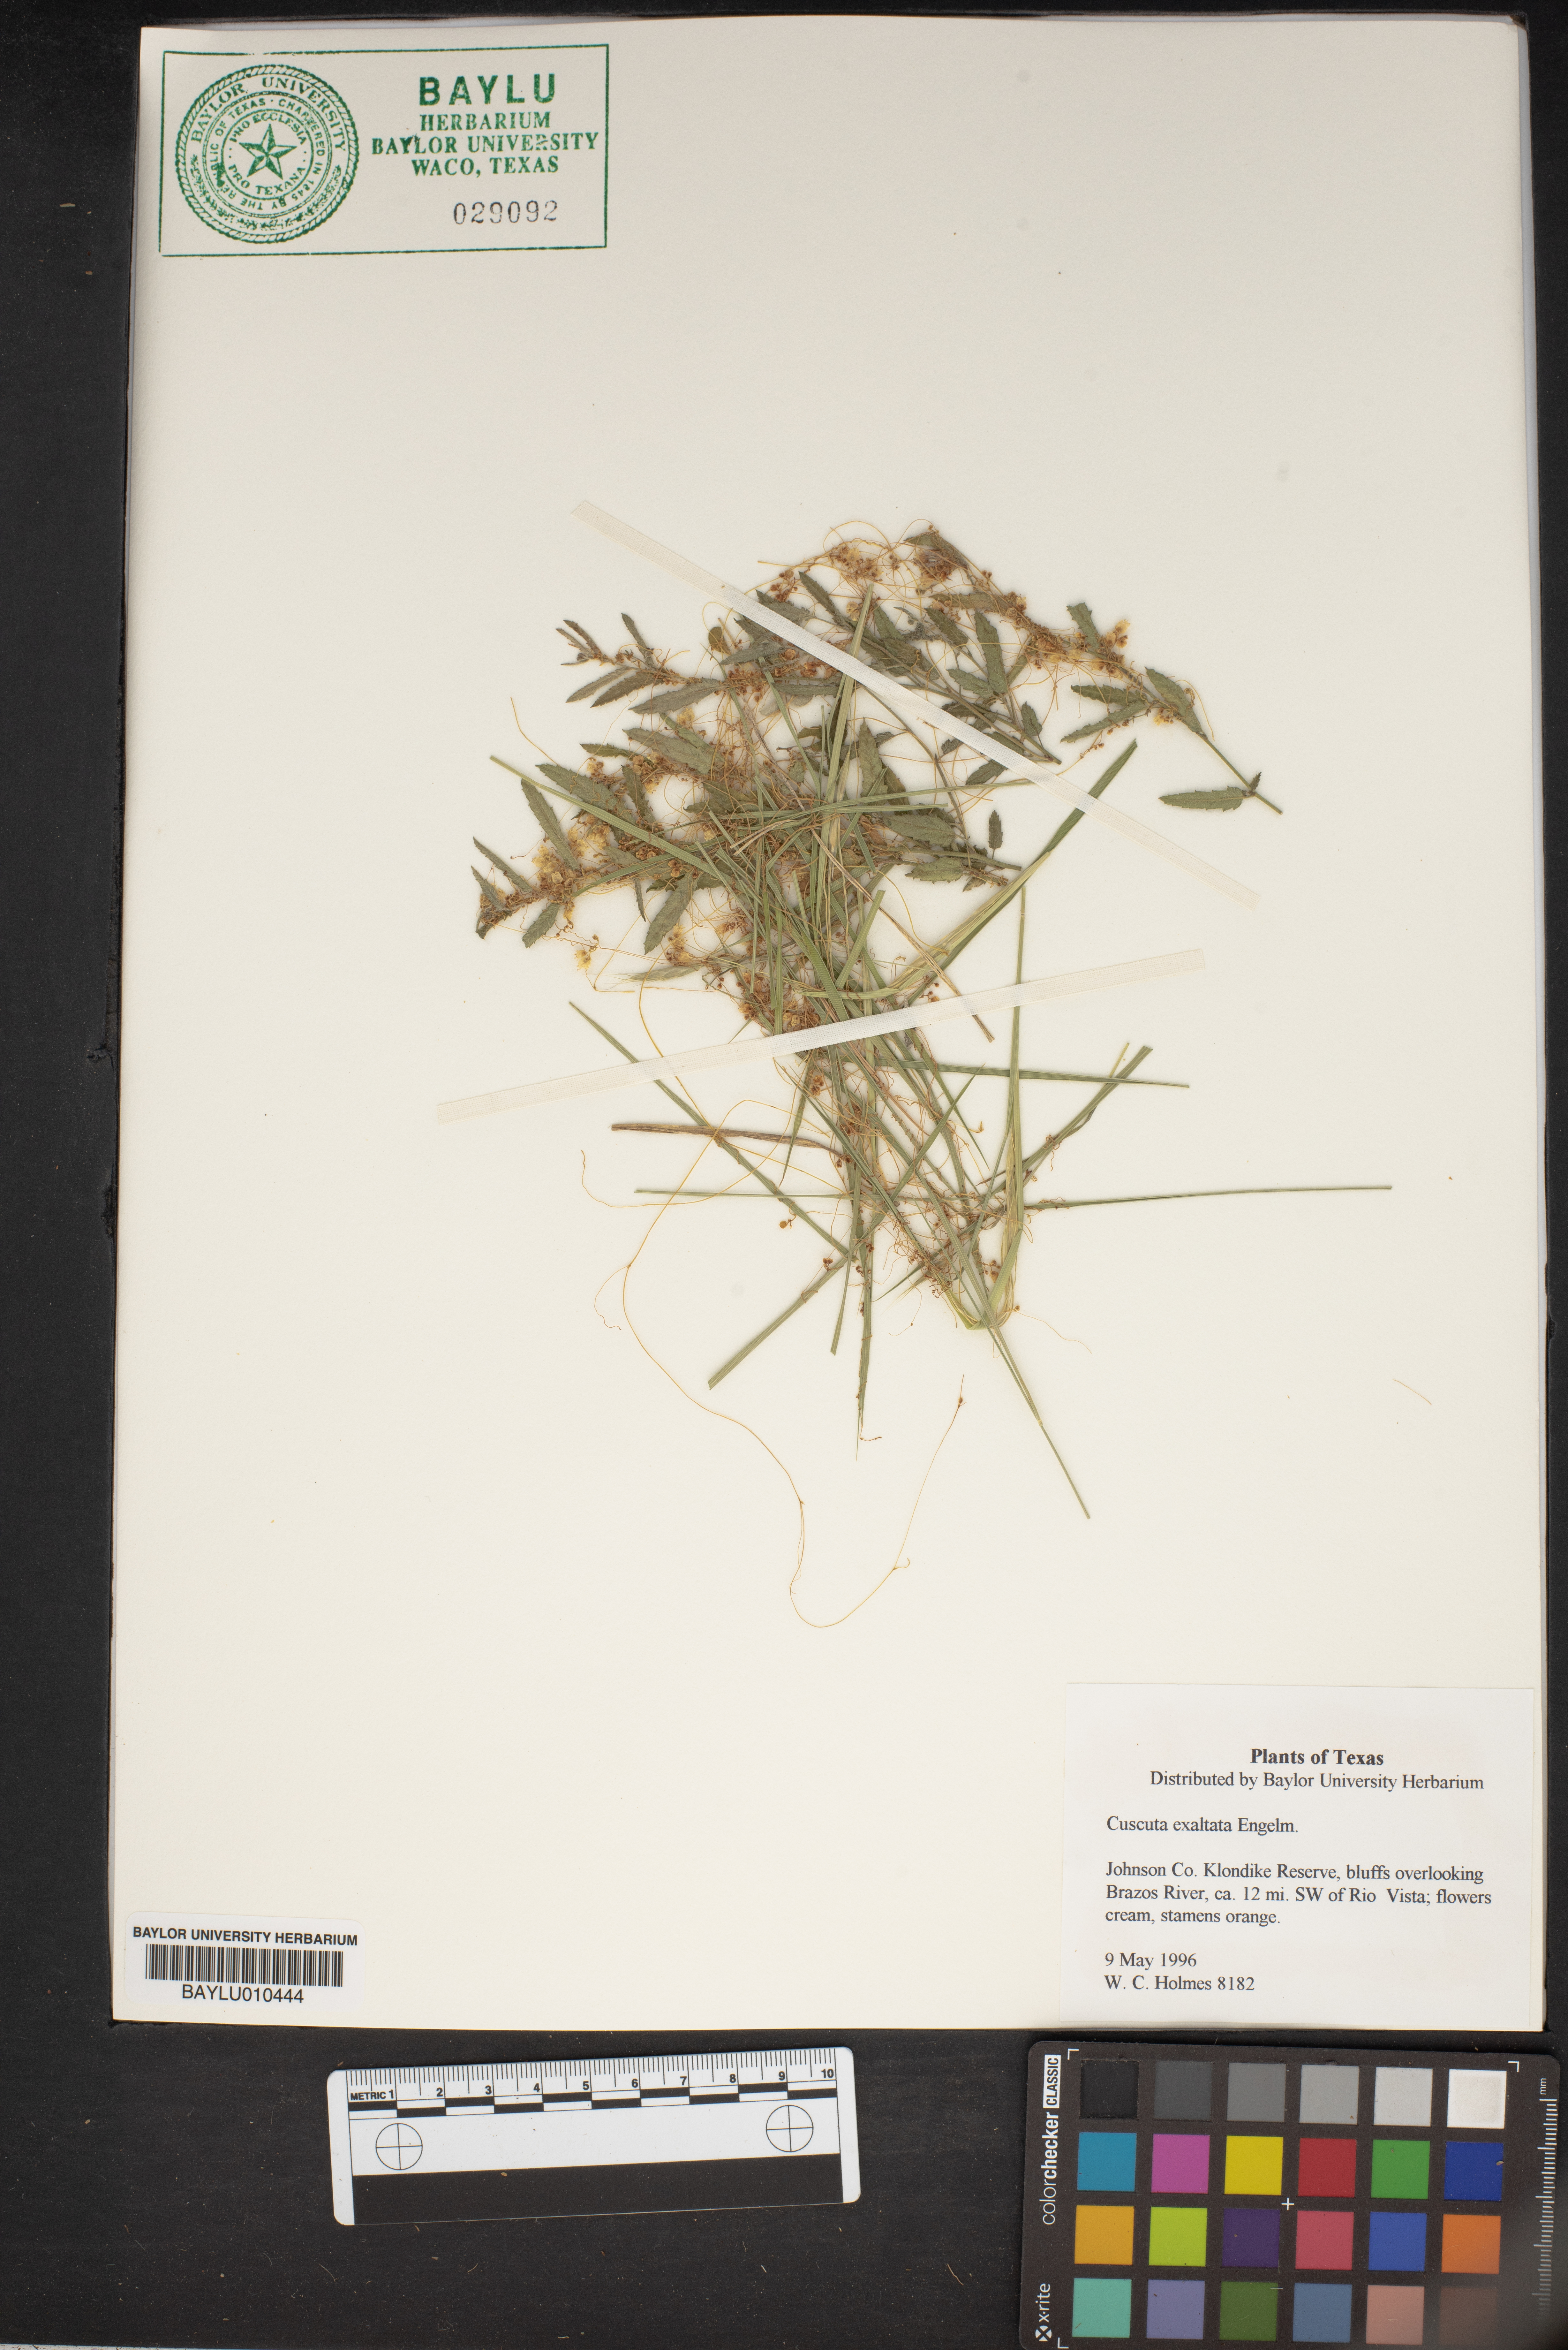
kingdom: Plantae
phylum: Tracheophyta
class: Magnoliopsida
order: Solanales
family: Convolvulaceae
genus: Cuscuta
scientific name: Cuscuta exaltata
